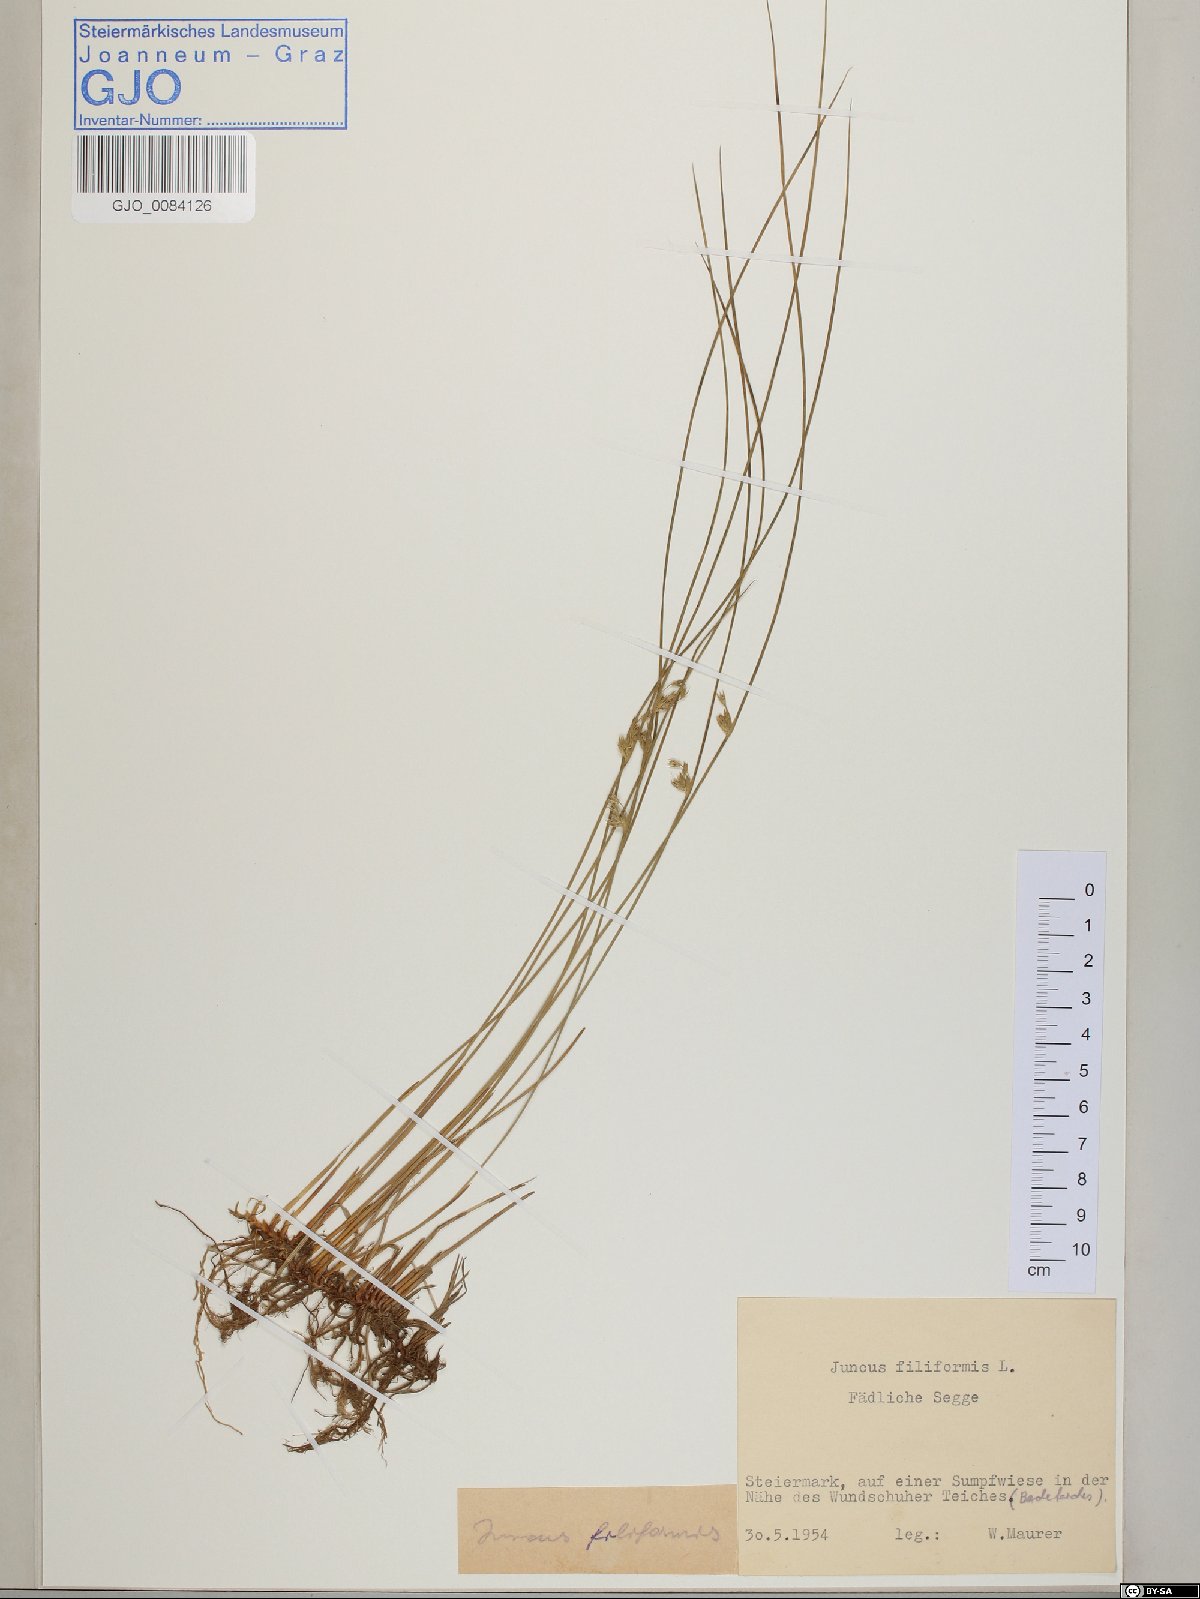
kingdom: Plantae
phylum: Tracheophyta
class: Liliopsida
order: Poales
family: Juncaceae
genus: Juncus
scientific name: Juncus filiformis
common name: Thread rush
